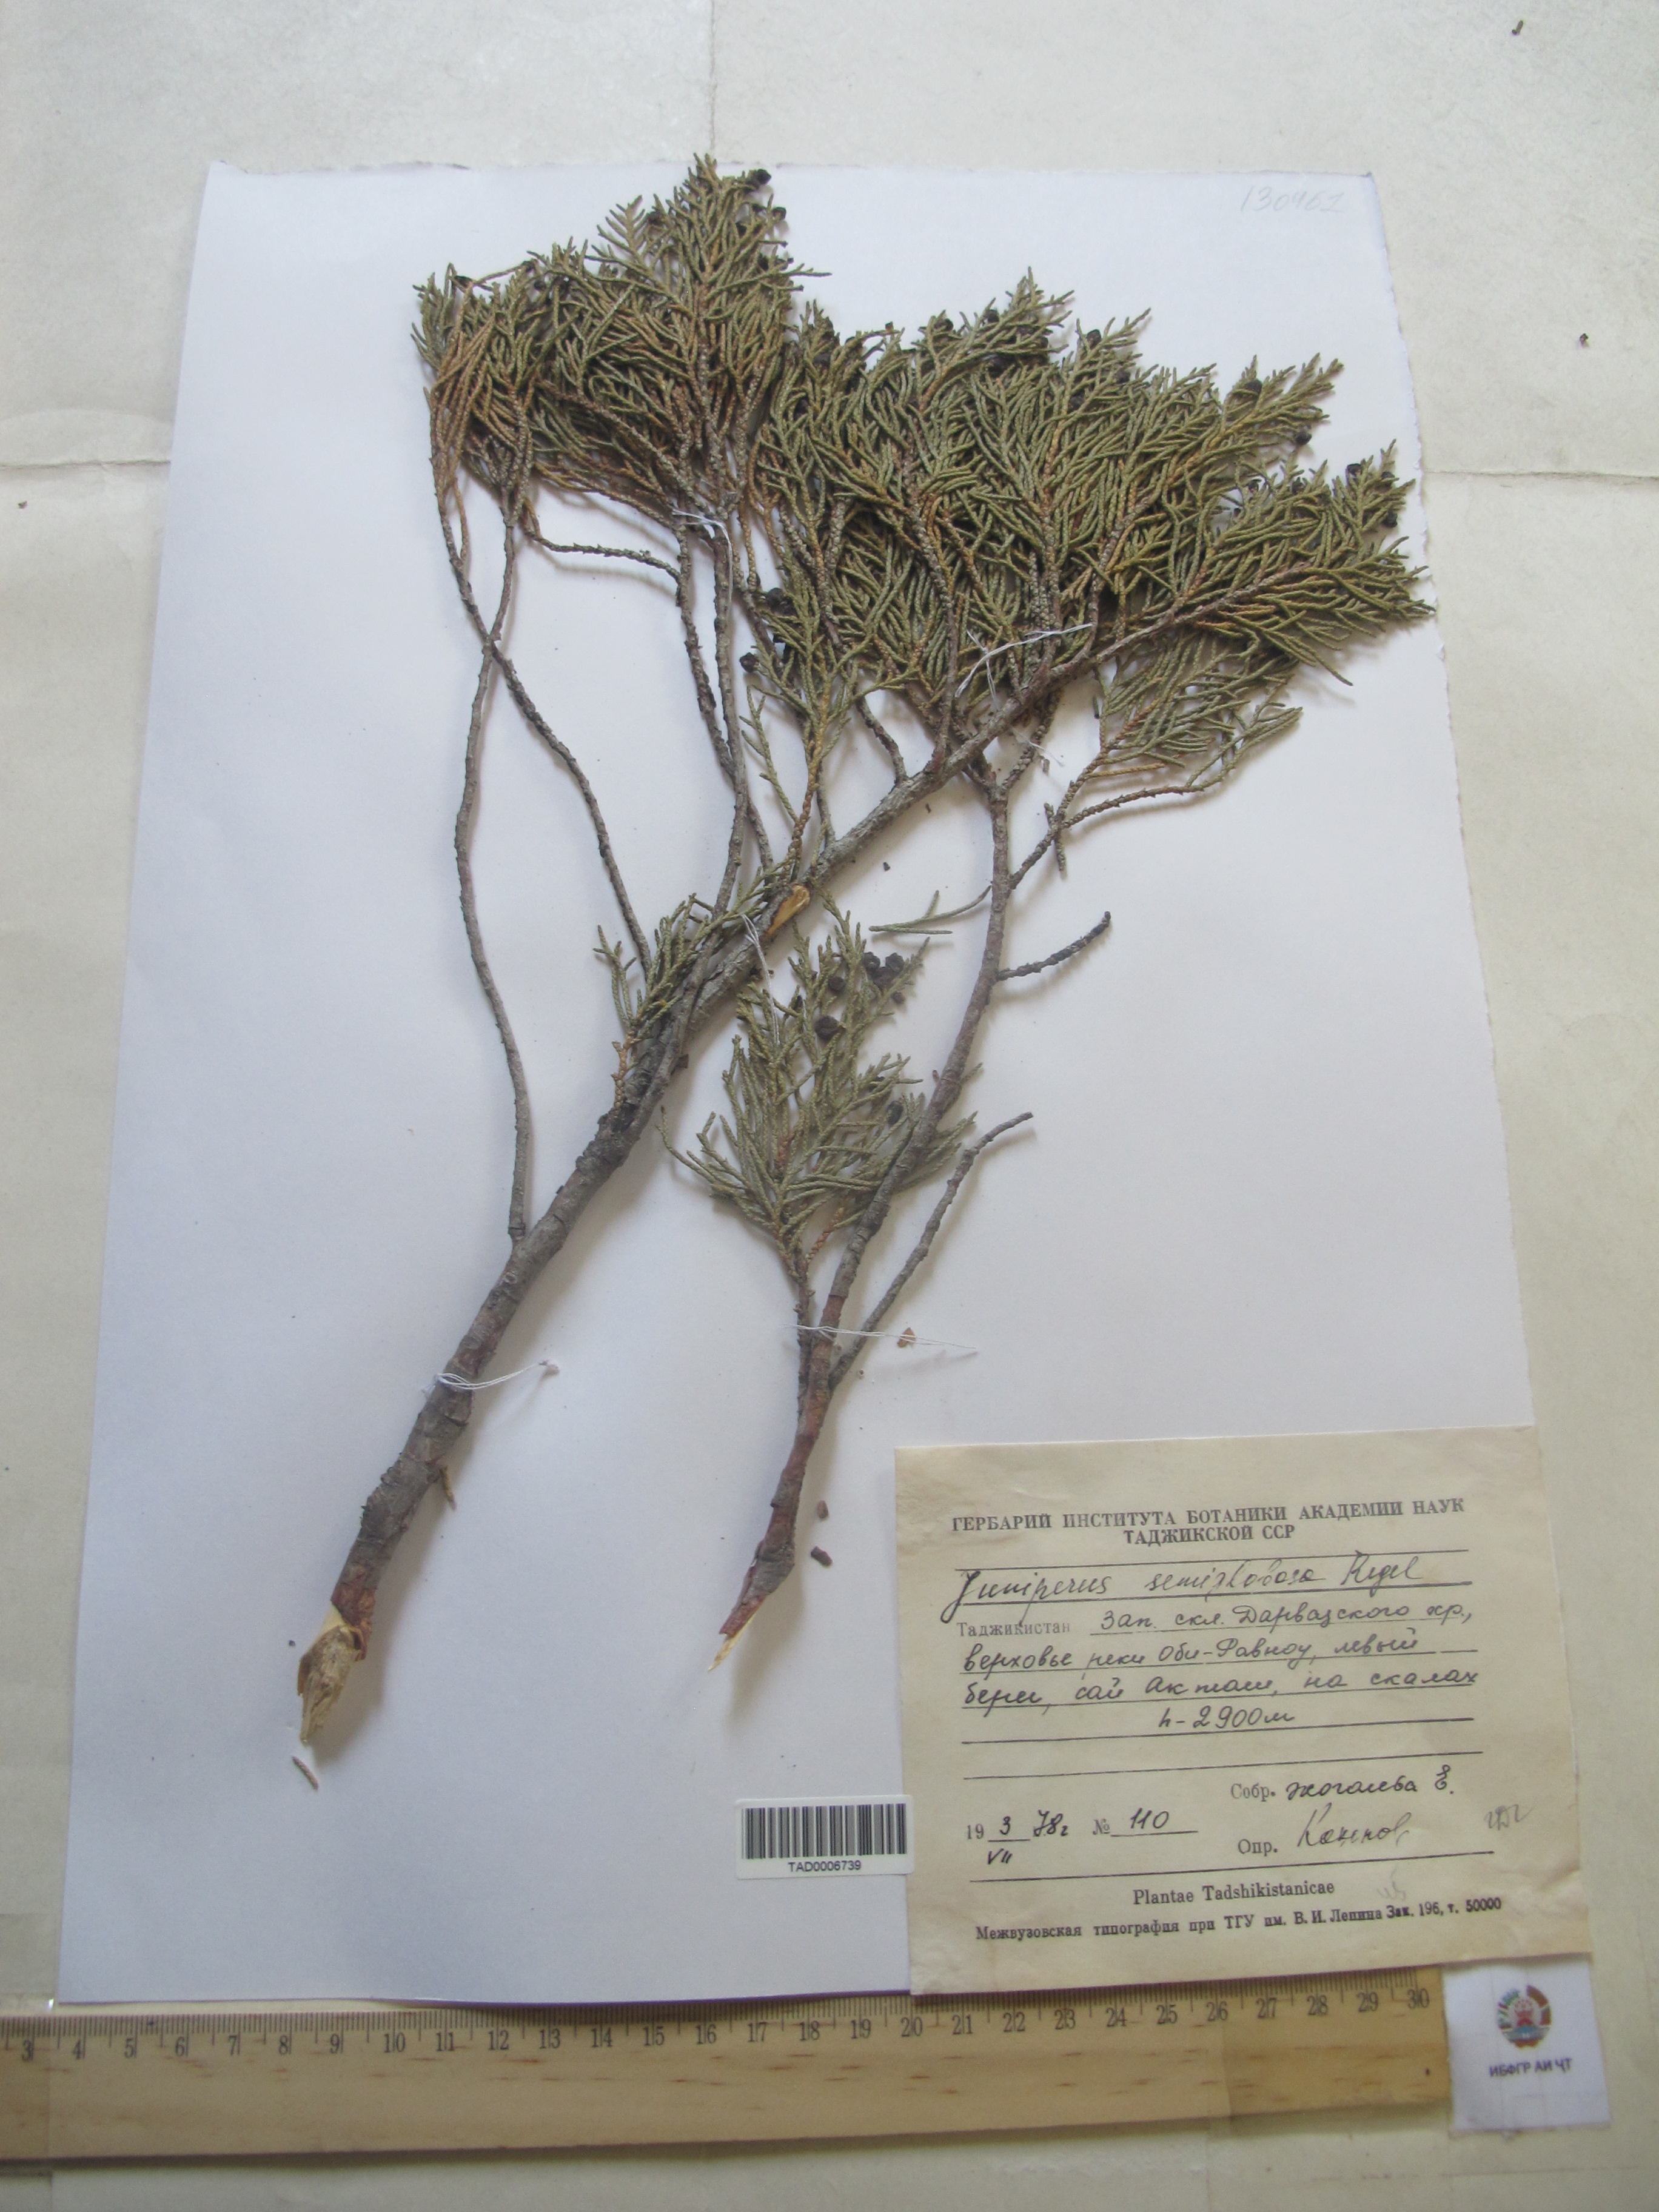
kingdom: Plantae
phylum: Tracheophyta
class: Pinopsida
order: Pinales
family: Cupressaceae
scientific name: Cupressaceae
